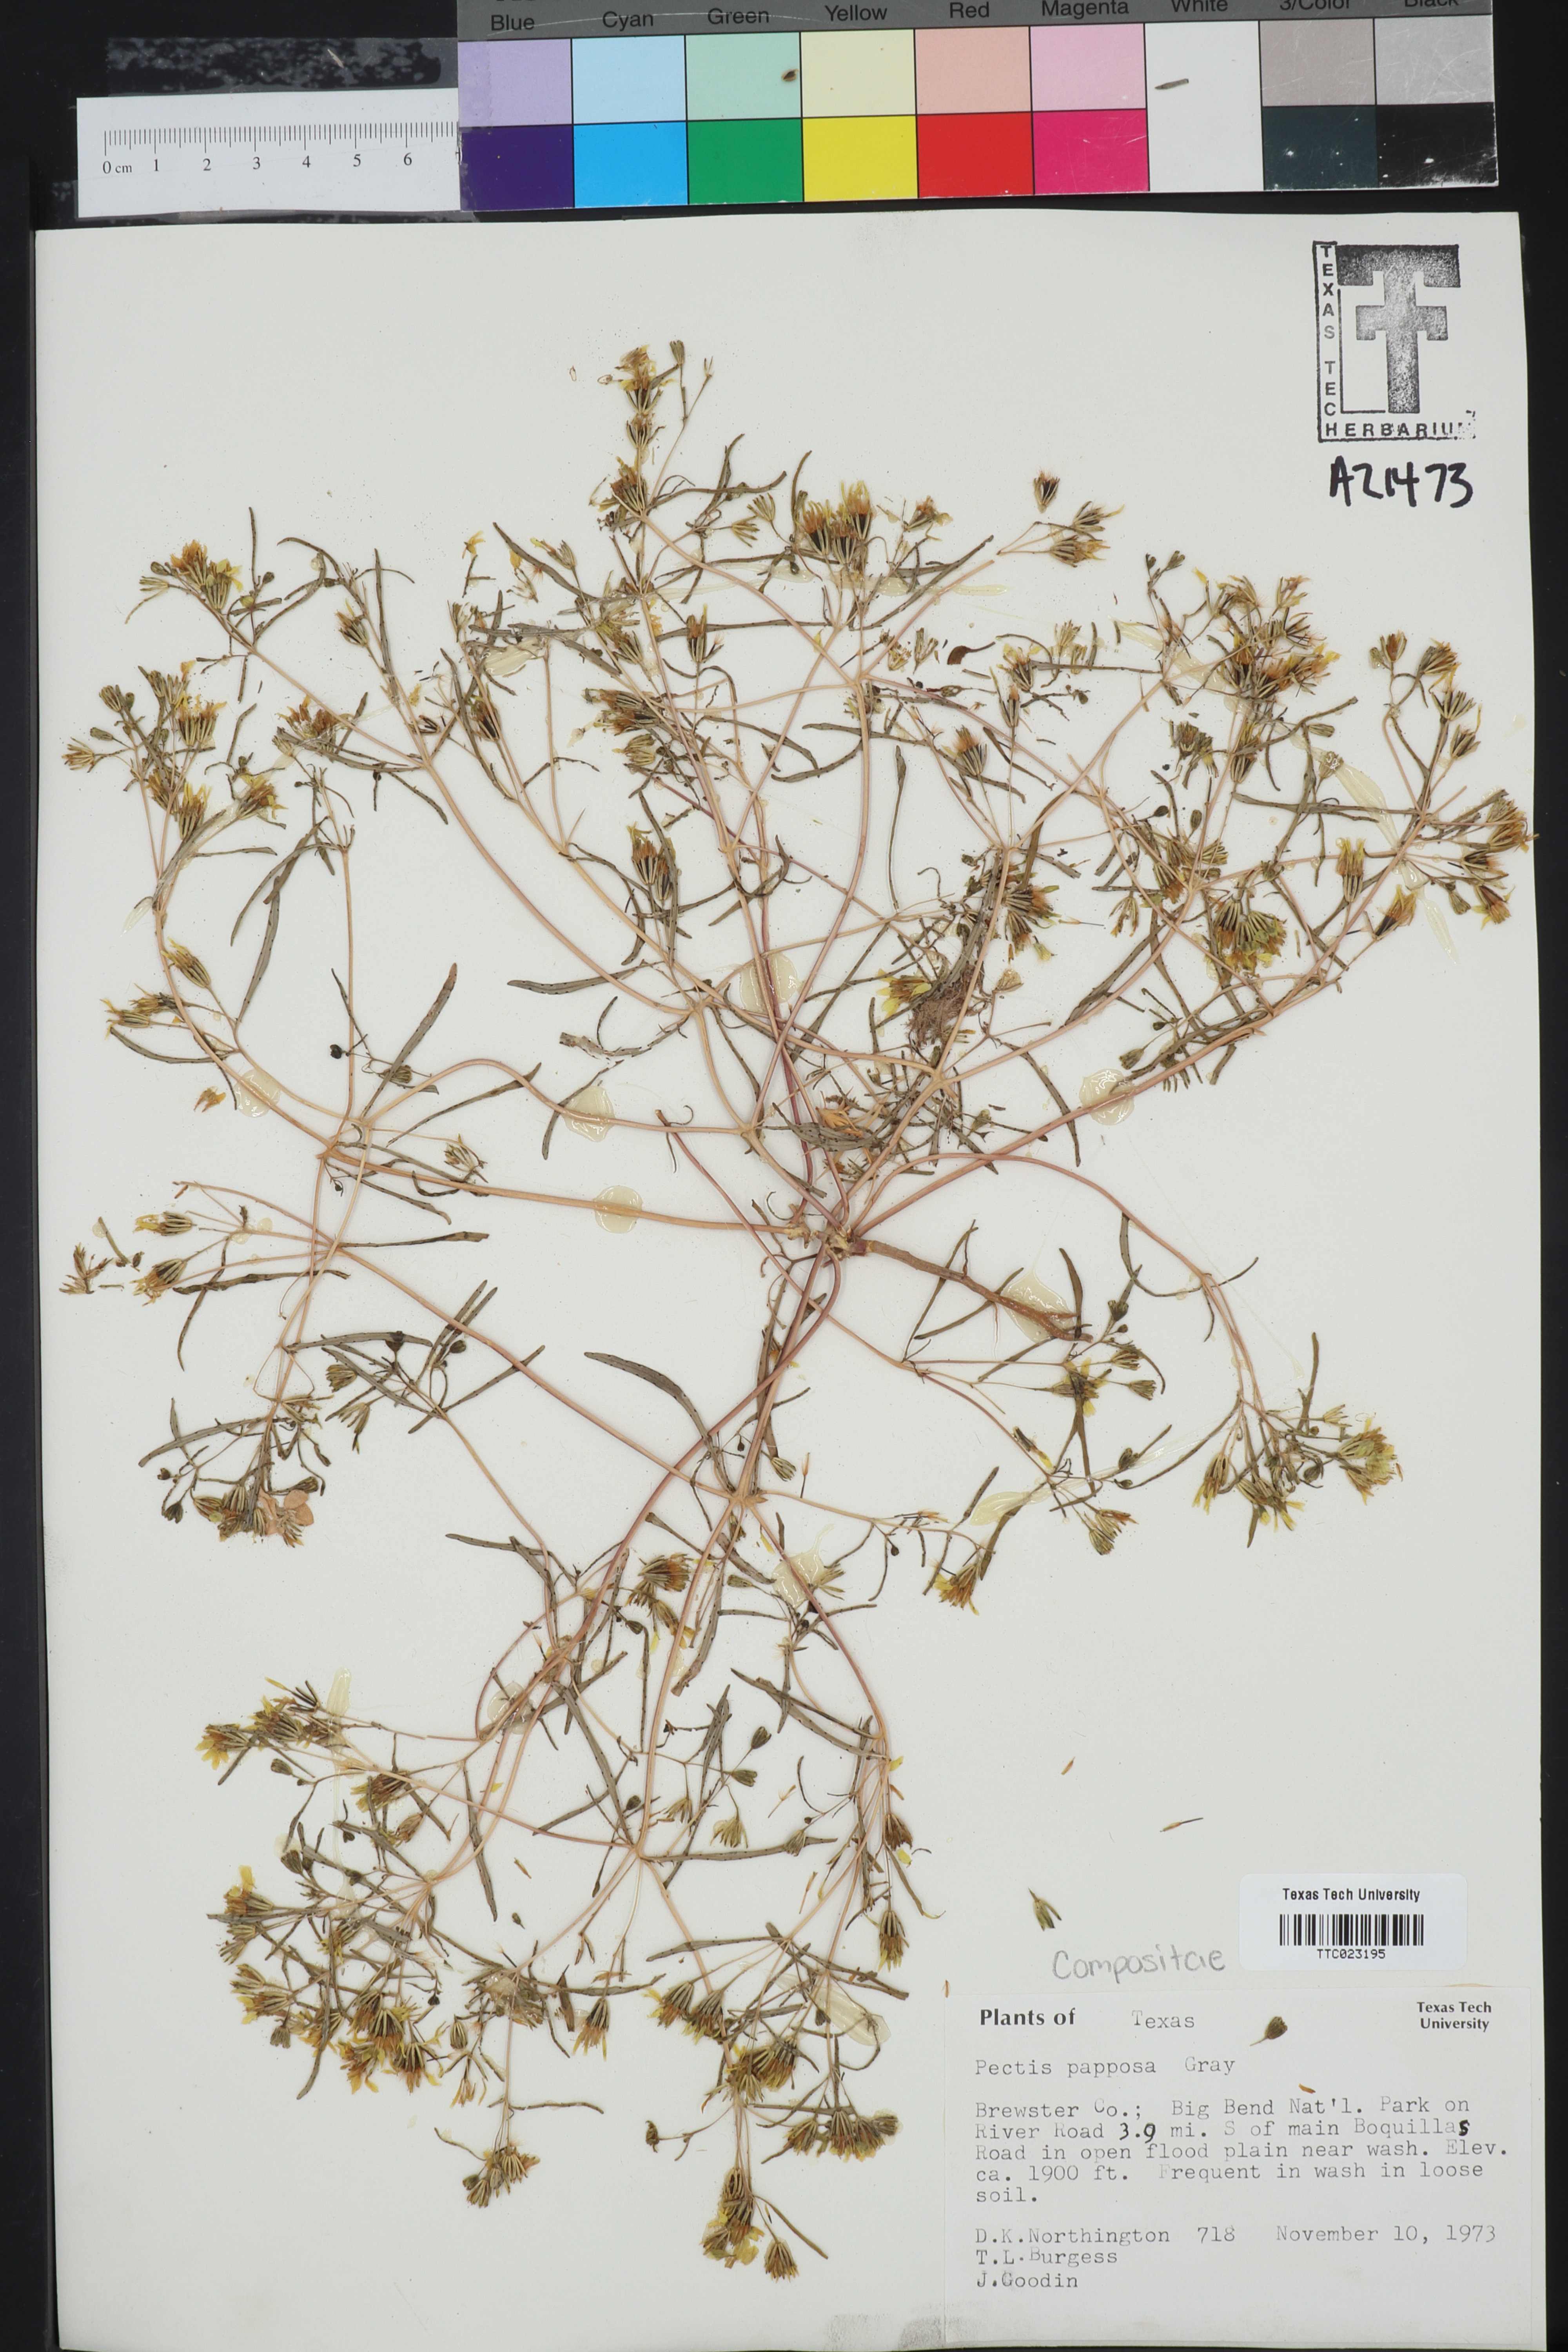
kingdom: Plantae
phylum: Tracheophyta
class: Magnoliopsida
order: Asterales
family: Asteraceae
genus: Pectis
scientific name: Pectis papposa
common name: Many-bristle chinchweed
